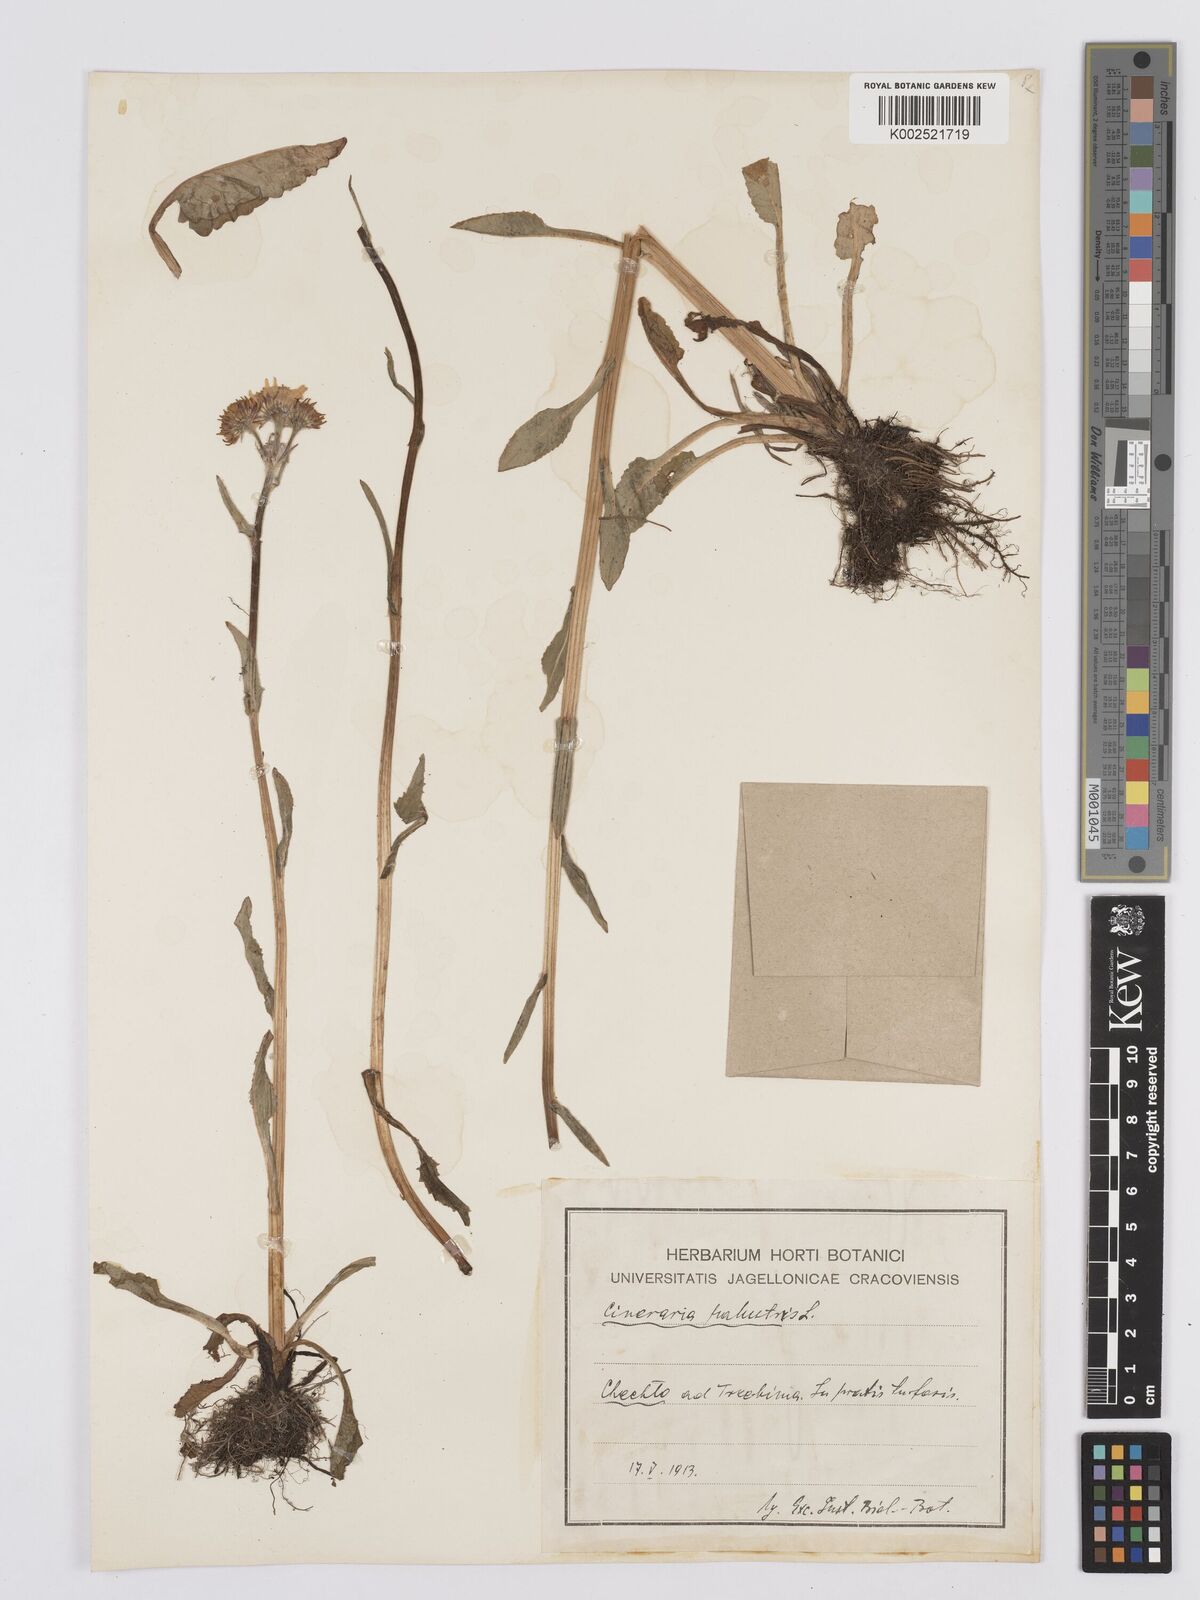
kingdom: Plantae
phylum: Tracheophyta
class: Magnoliopsida
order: Asterales
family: Asteraceae
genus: Tephroseris
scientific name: Tephroseris palustris
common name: Marsh fleawort
